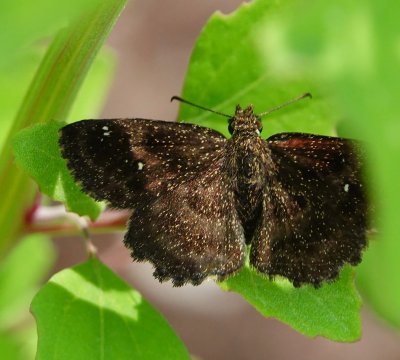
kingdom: Animalia
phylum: Arthropoda
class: Insecta
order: Lepidoptera
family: Hesperiidae
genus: Staphylus
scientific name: Staphylus mazans
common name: Hayhurst's Scallopwing
